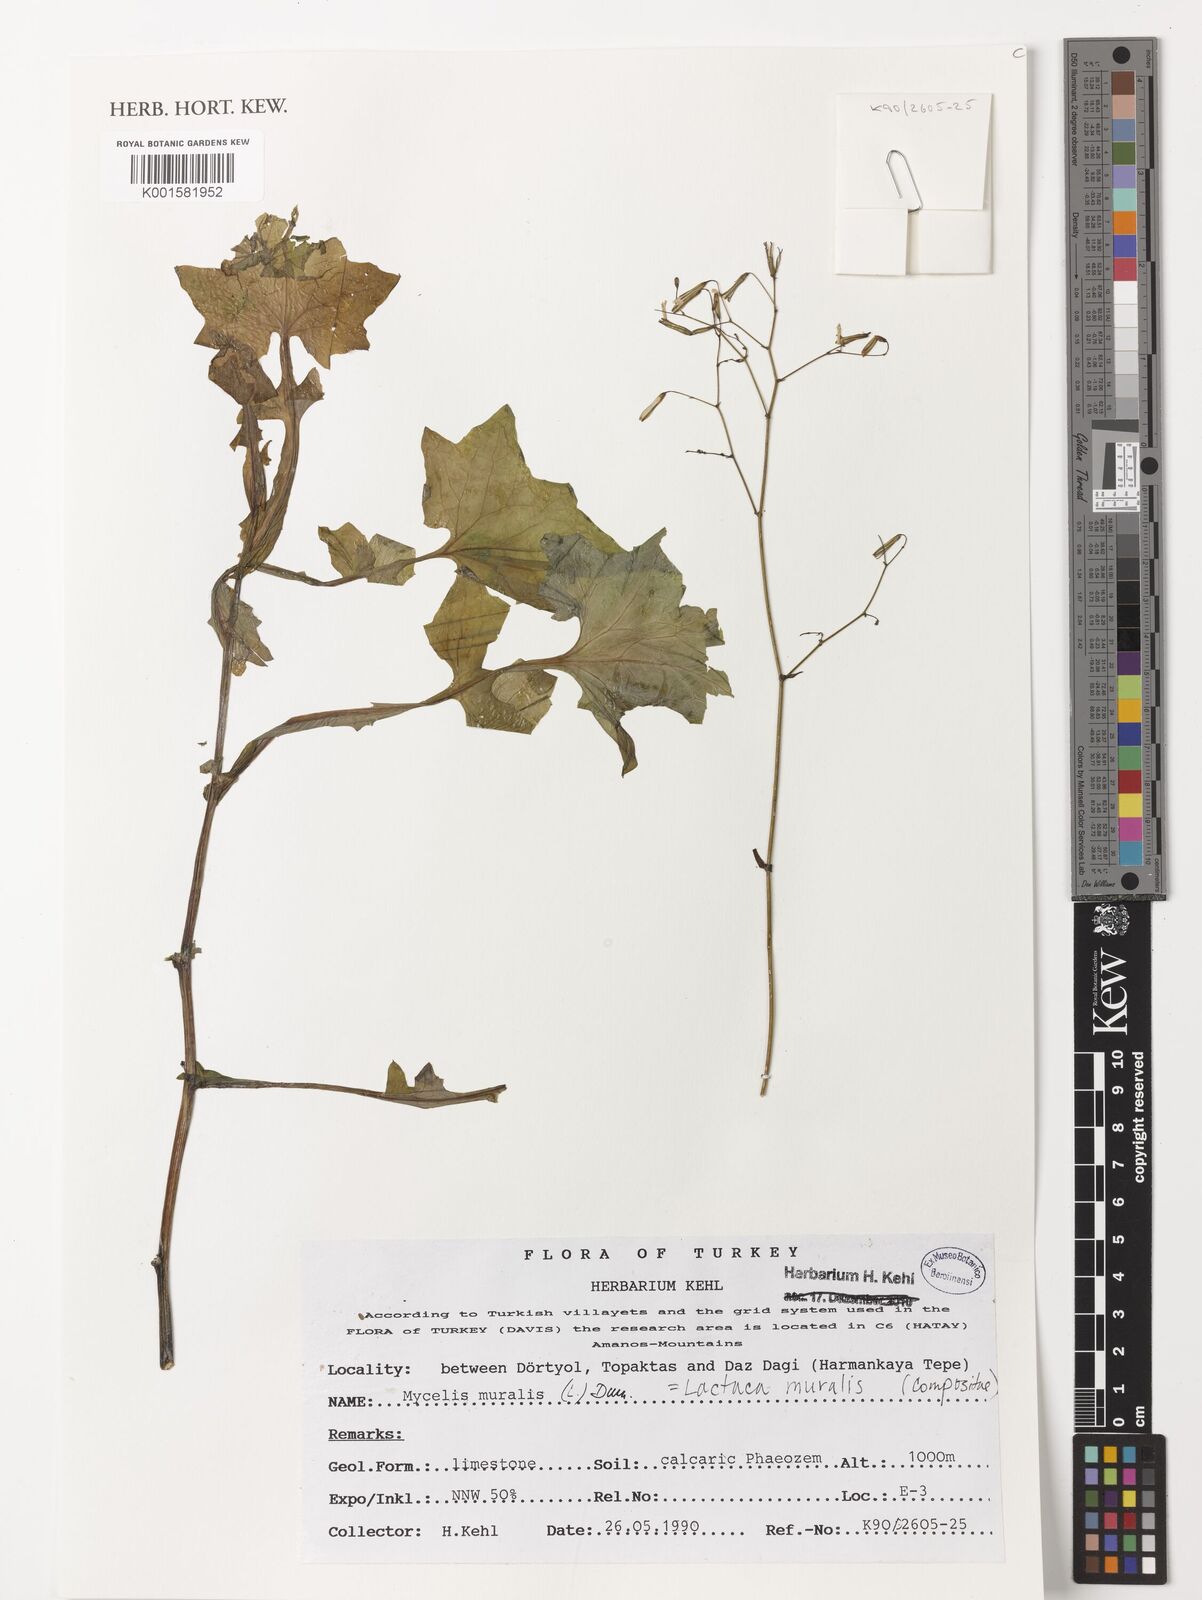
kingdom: Plantae
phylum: Tracheophyta
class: Magnoliopsida
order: Asterales
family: Asteraceae
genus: Mycelis
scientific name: Mycelis muralis
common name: Wall lettuce
